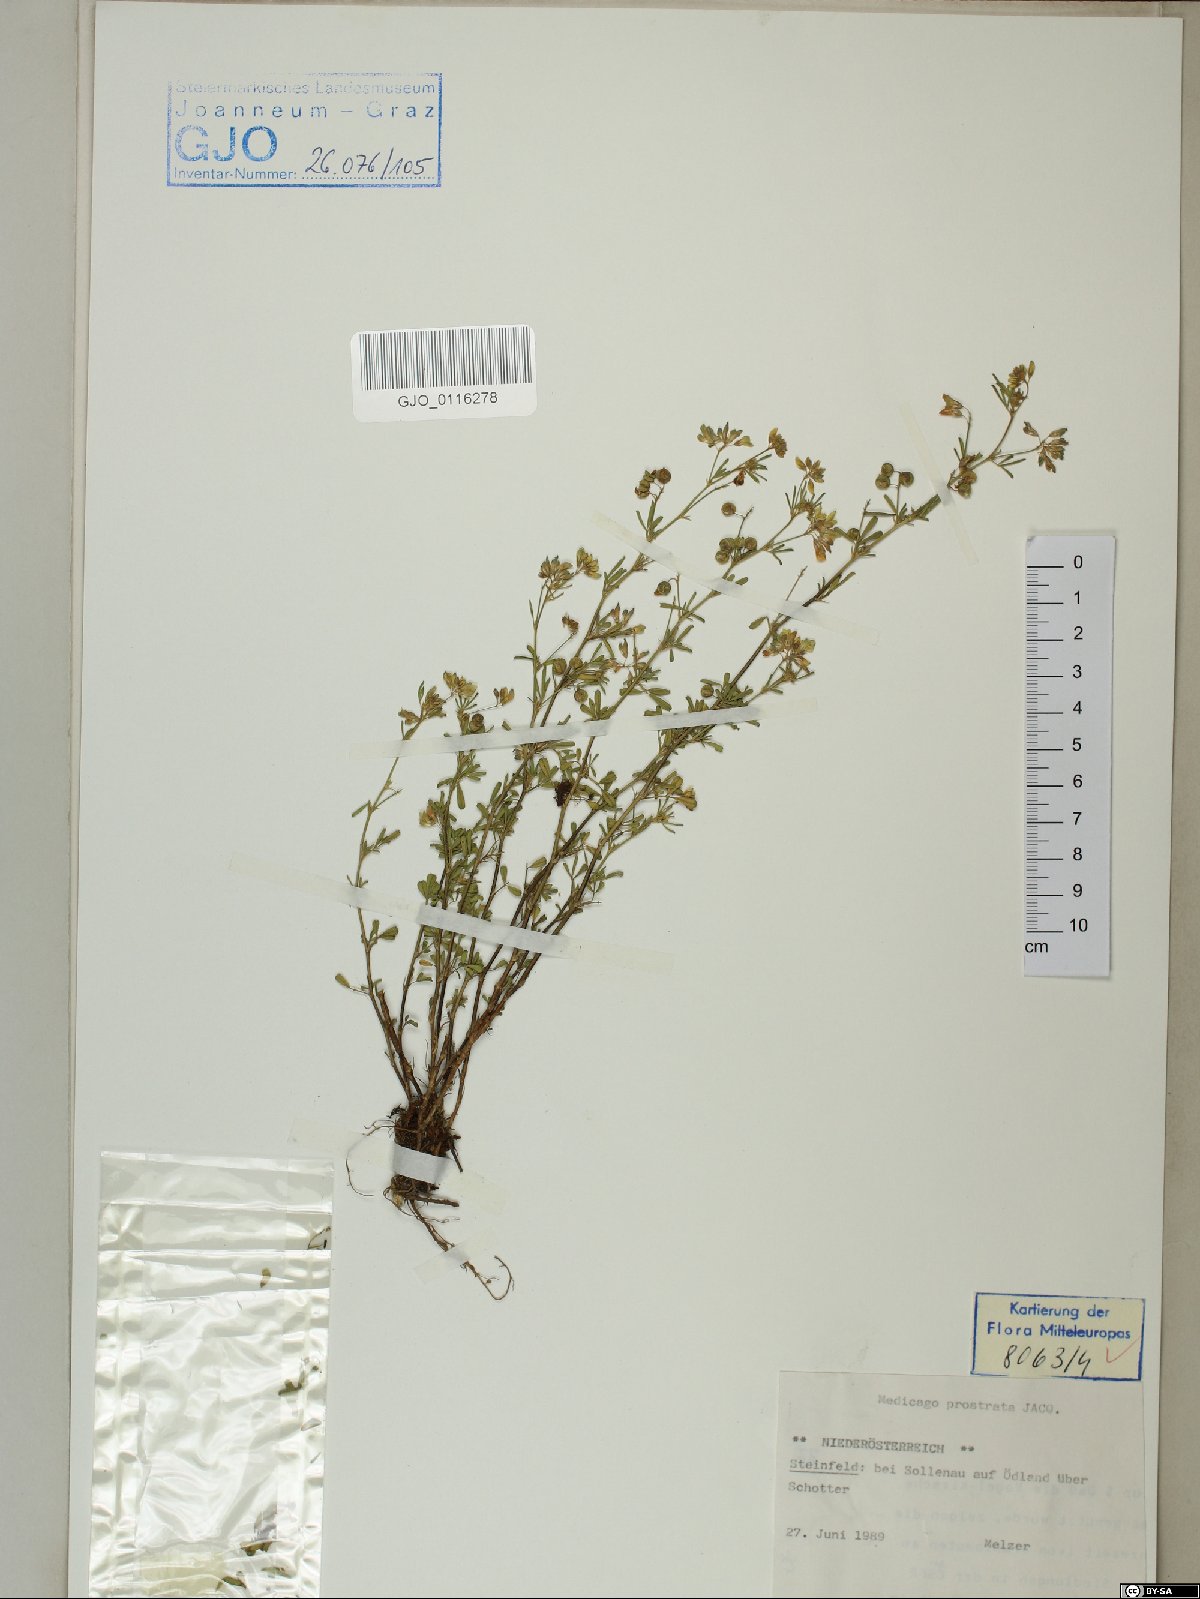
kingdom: Plantae
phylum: Tracheophyta
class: Magnoliopsida
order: Fabales
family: Fabaceae
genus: Medicago
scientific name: Medicago prostrata
